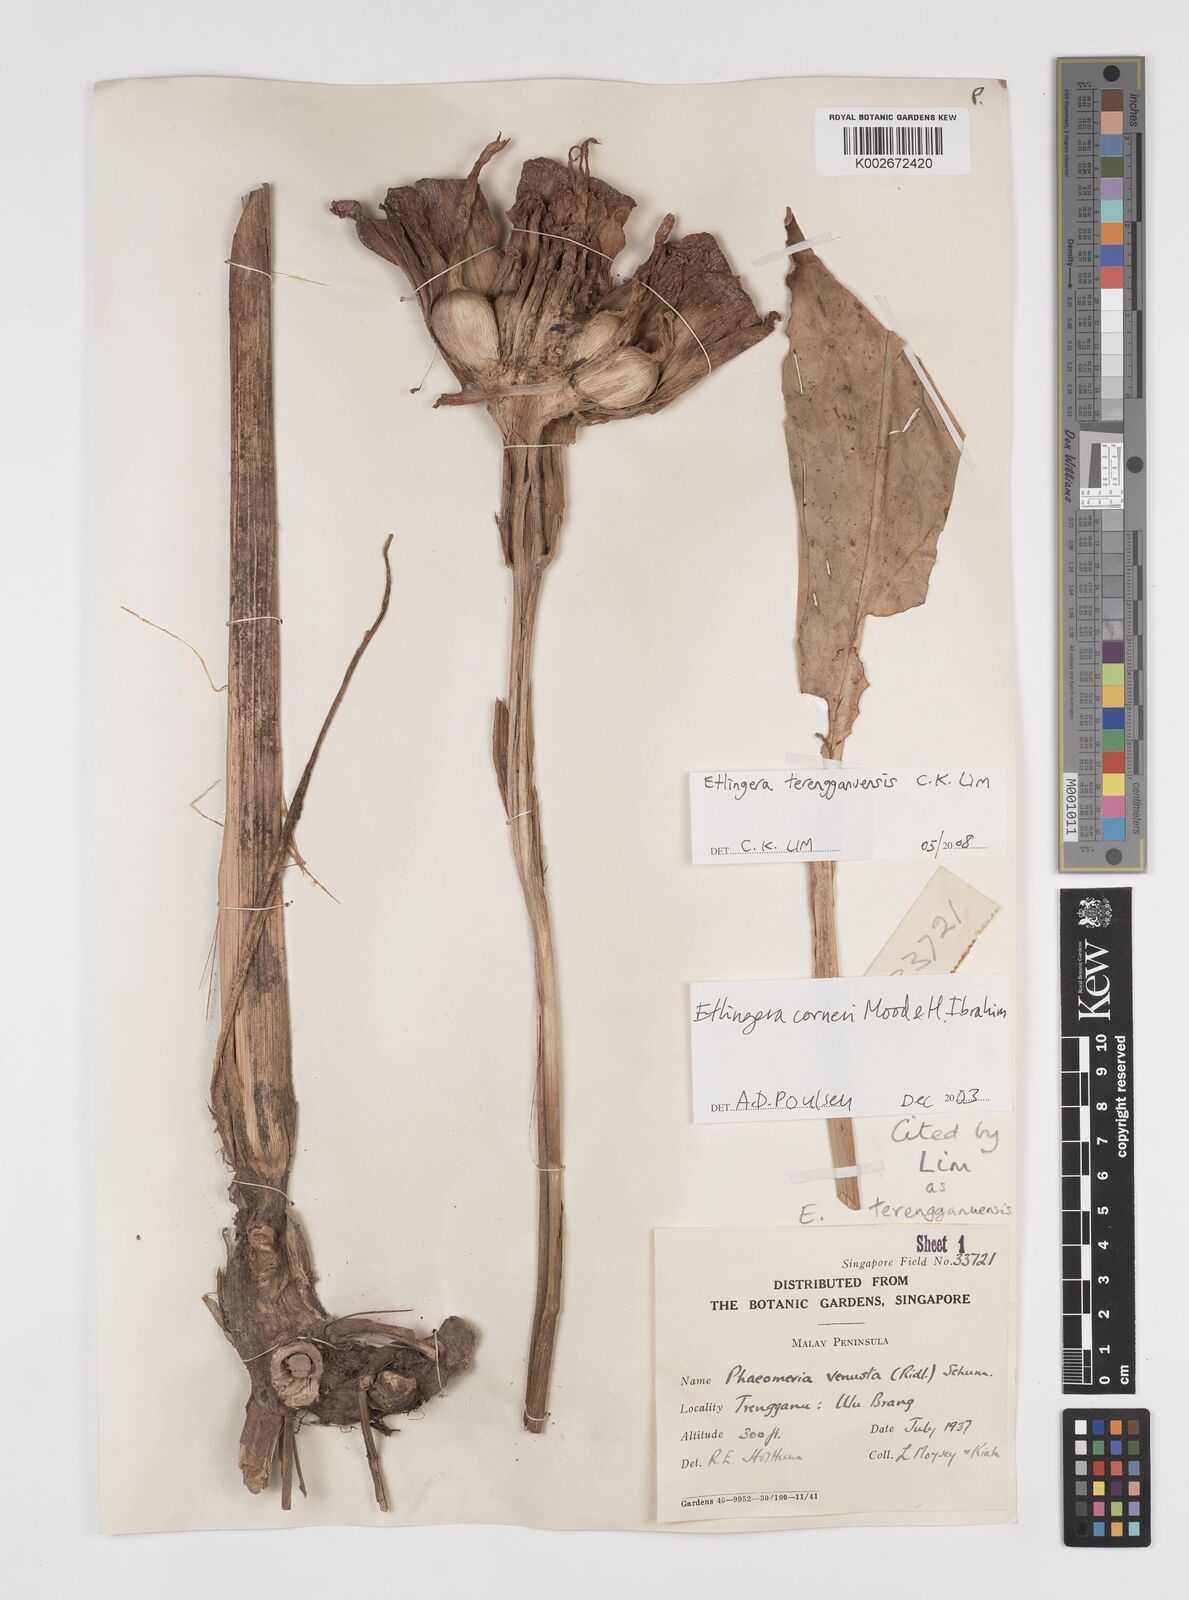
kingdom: Plantae
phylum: Tracheophyta
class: Liliopsida
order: Zingiberales
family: Zingiberaceae
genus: Etlingera
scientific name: Etlingera corneri
